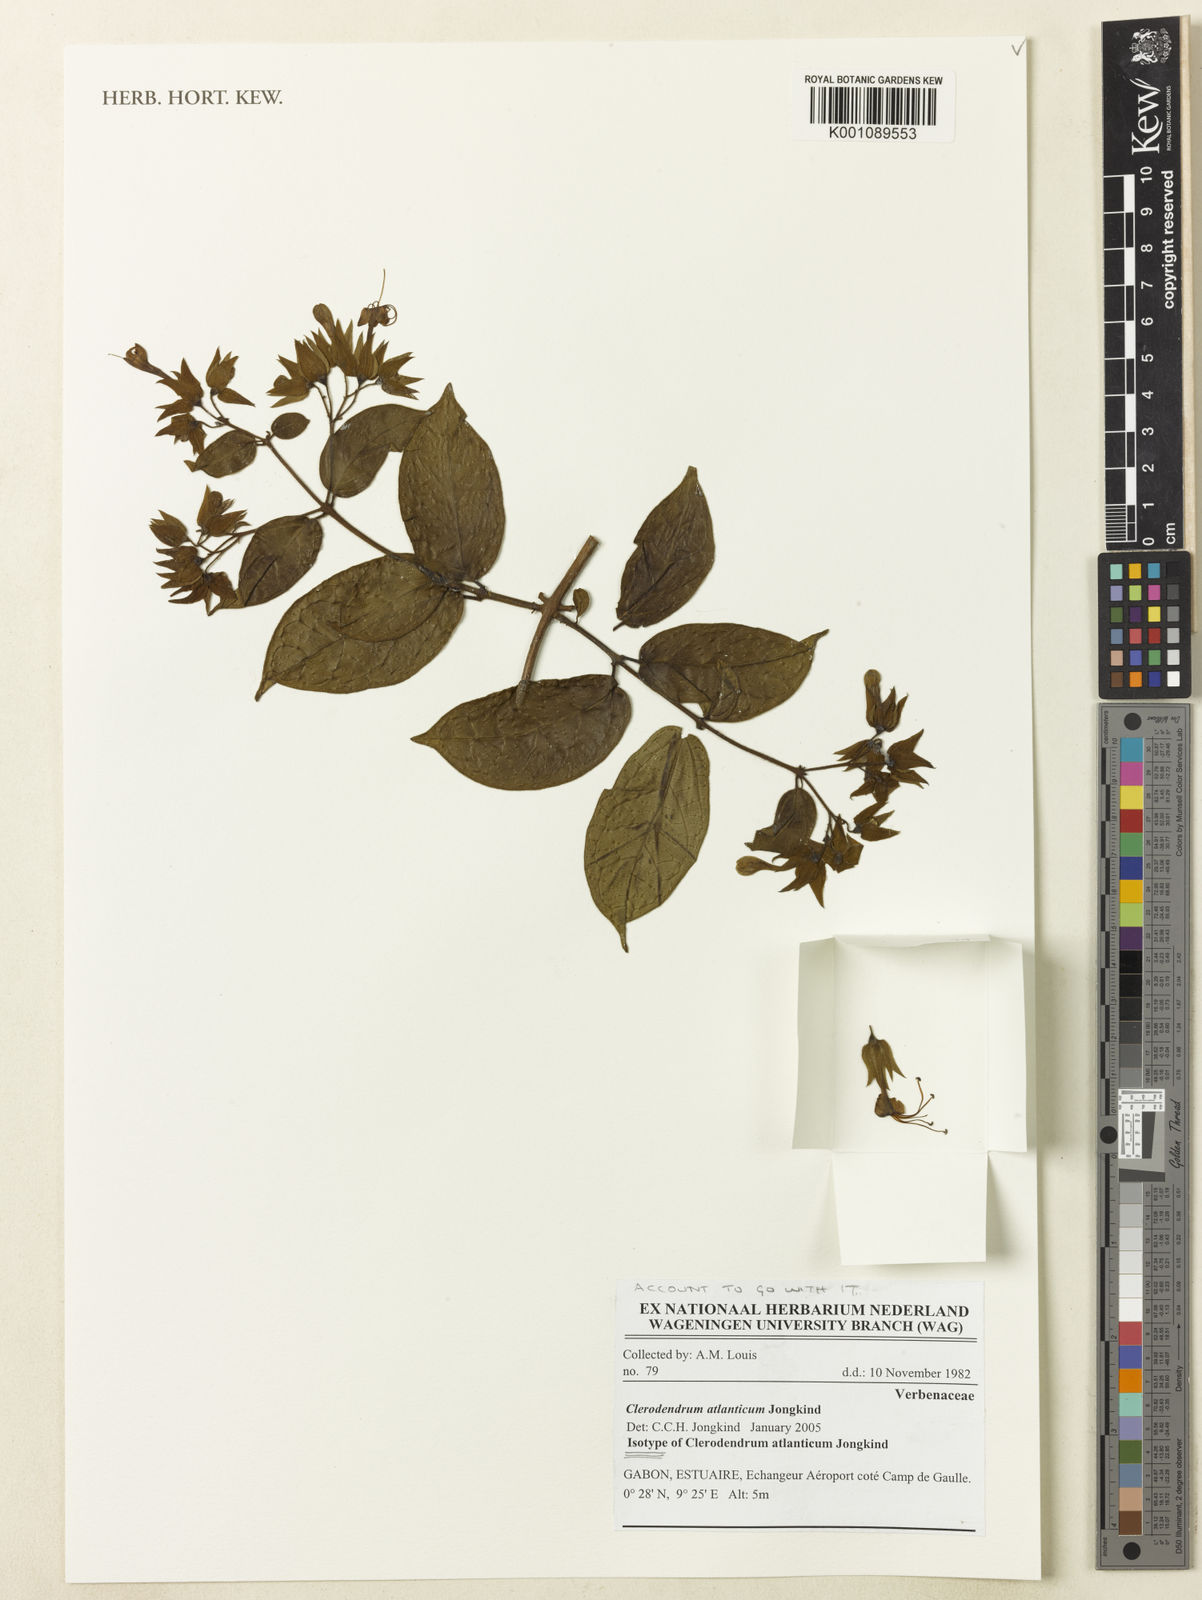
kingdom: Plantae
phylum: Tracheophyta
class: Magnoliopsida
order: Lamiales
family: Lamiaceae
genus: Clerodendrum
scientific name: Clerodendrum atlanticum
